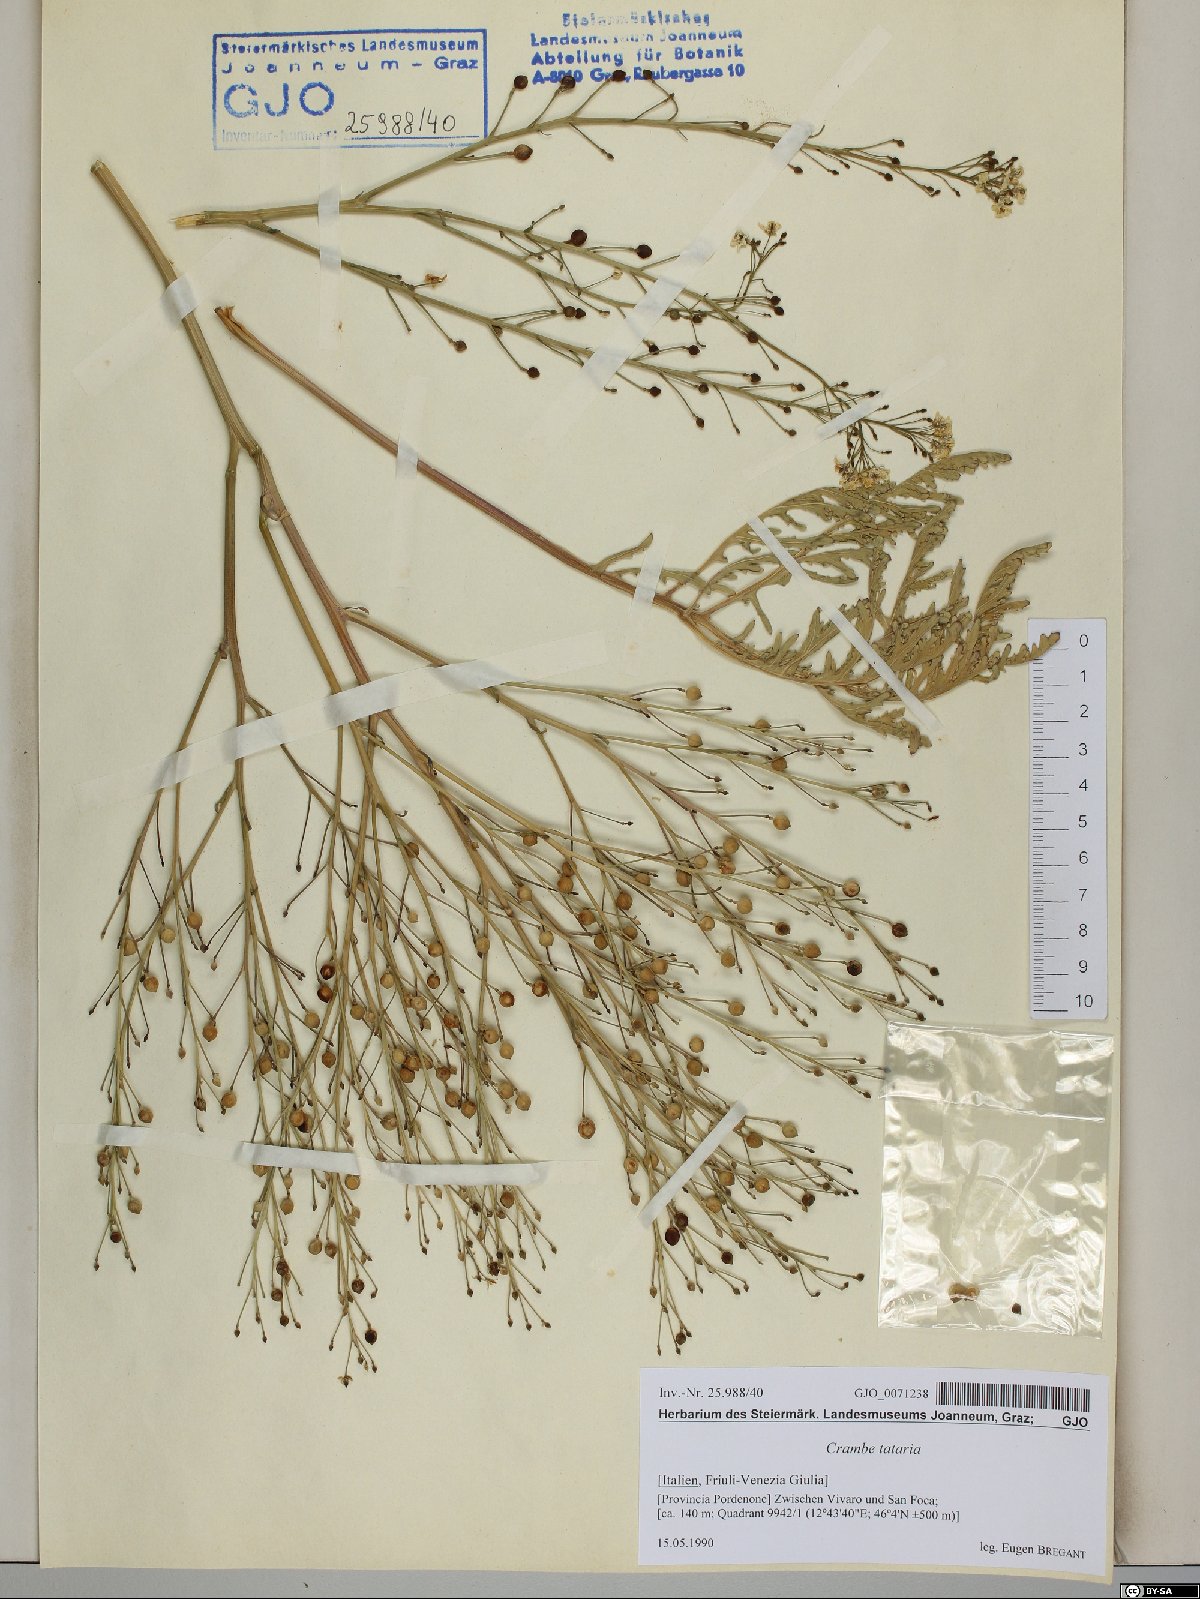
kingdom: Plantae
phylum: Tracheophyta
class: Magnoliopsida
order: Brassicales
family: Brassicaceae
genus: Crambe
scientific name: Crambe tataria
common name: Tartarian breadplant
